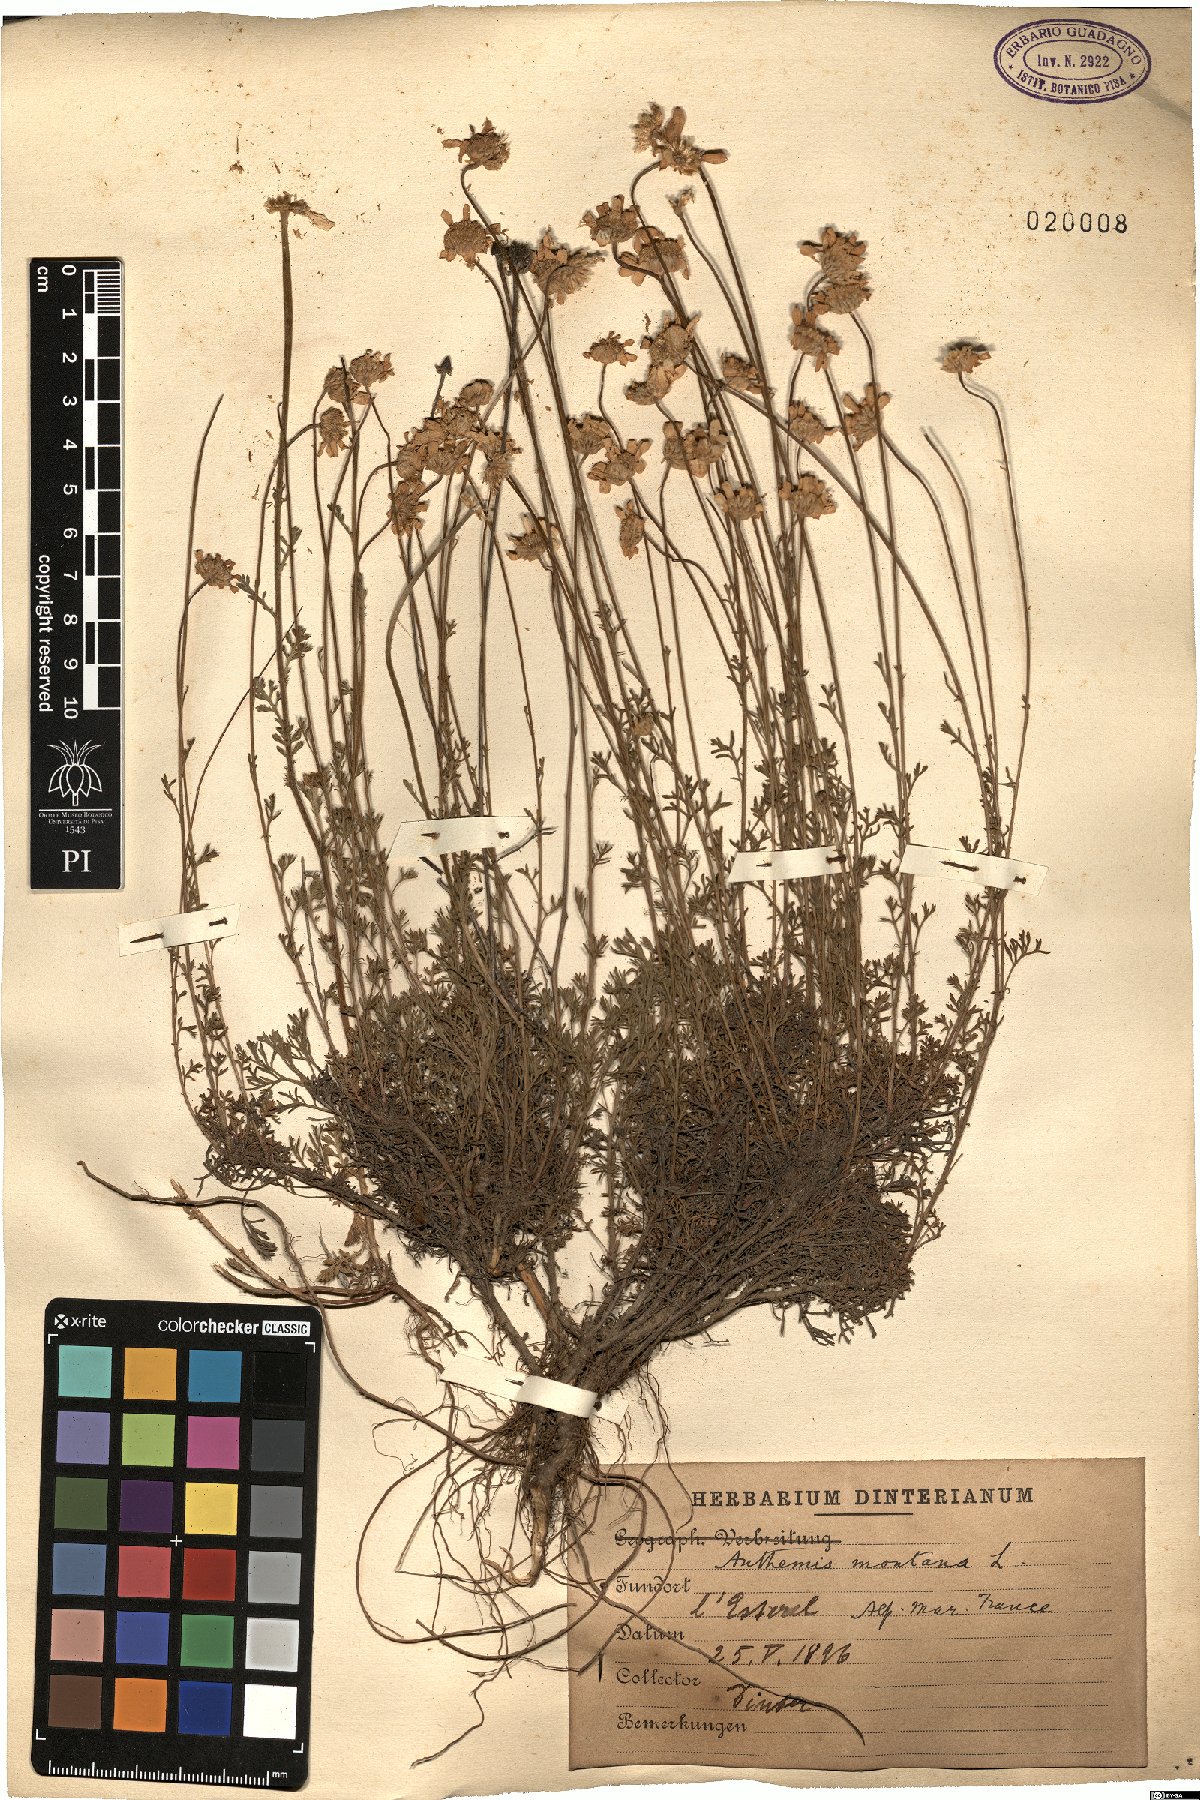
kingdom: Plantae
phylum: Tracheophyta
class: Magnoliopsida
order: Asterales
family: Asteraceae
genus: Anthemis
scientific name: Anthemis cretica
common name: Mountain dog-daisy
